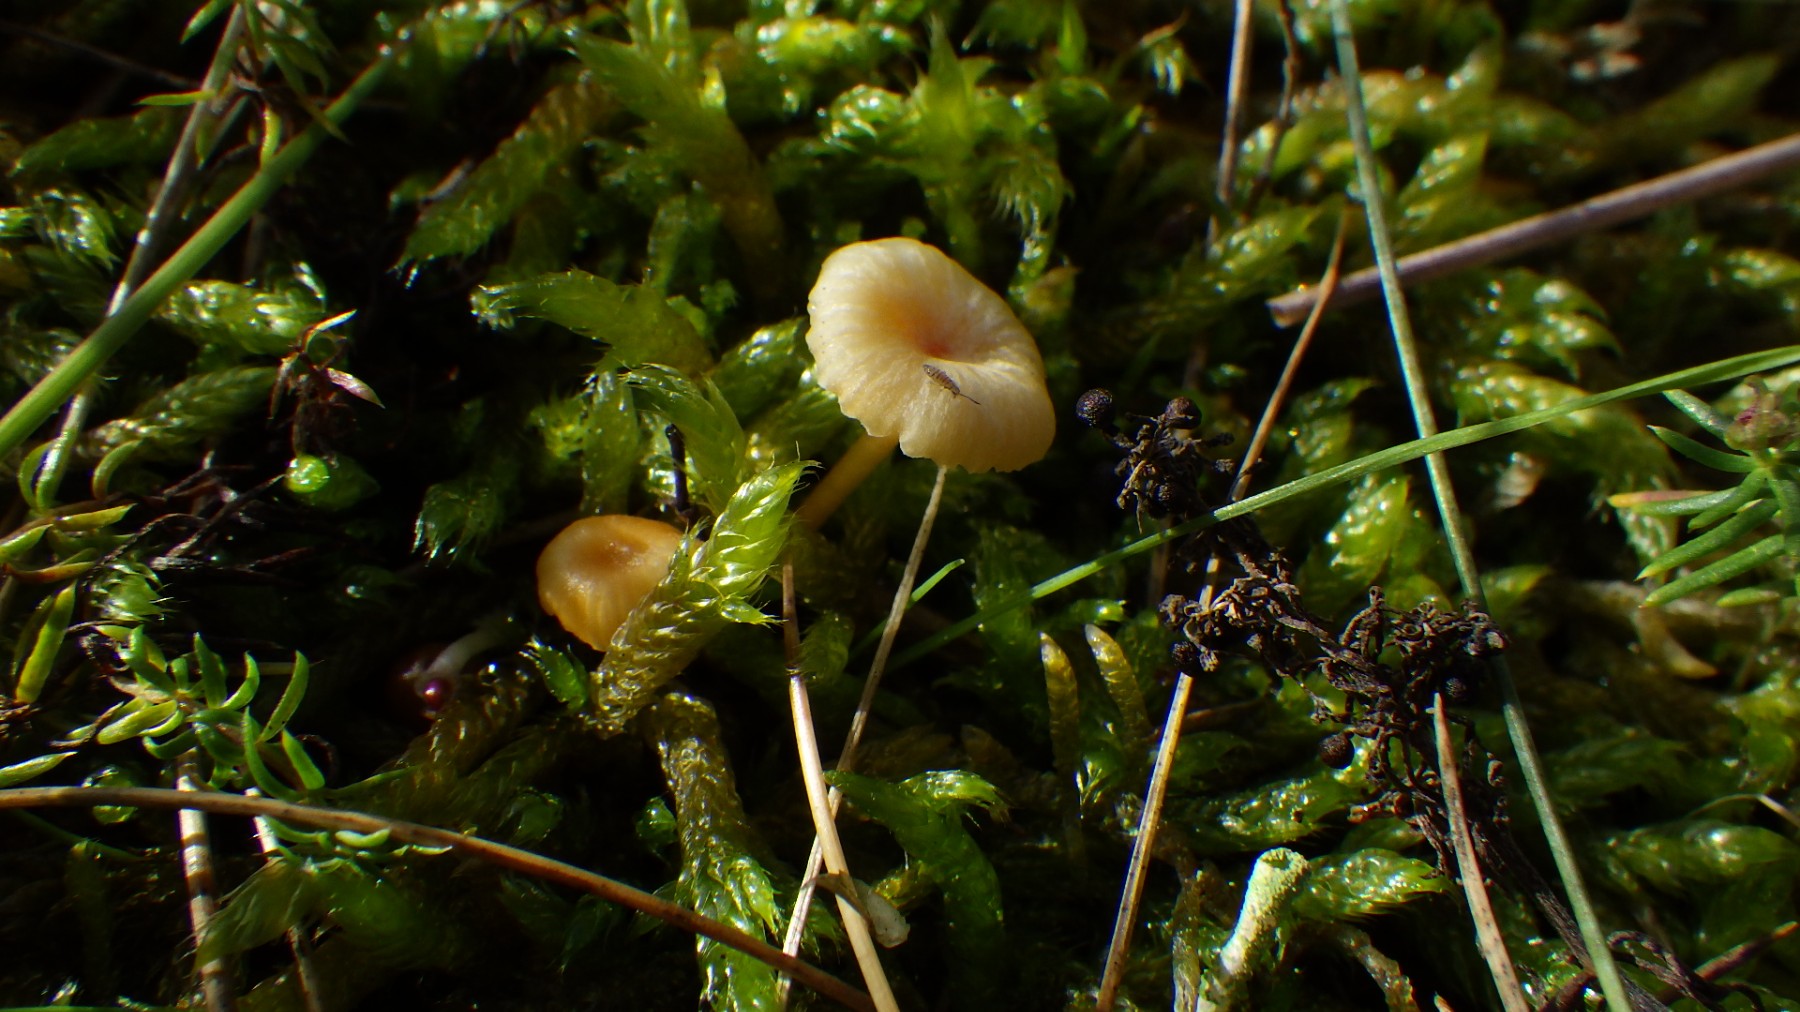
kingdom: Fungi
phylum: Basidiomycota
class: Agaricomycetes
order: Hymenochaetales
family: Rickenellaceae
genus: Rickenella
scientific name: Rickenella fibula
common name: orange mosnavlehat
